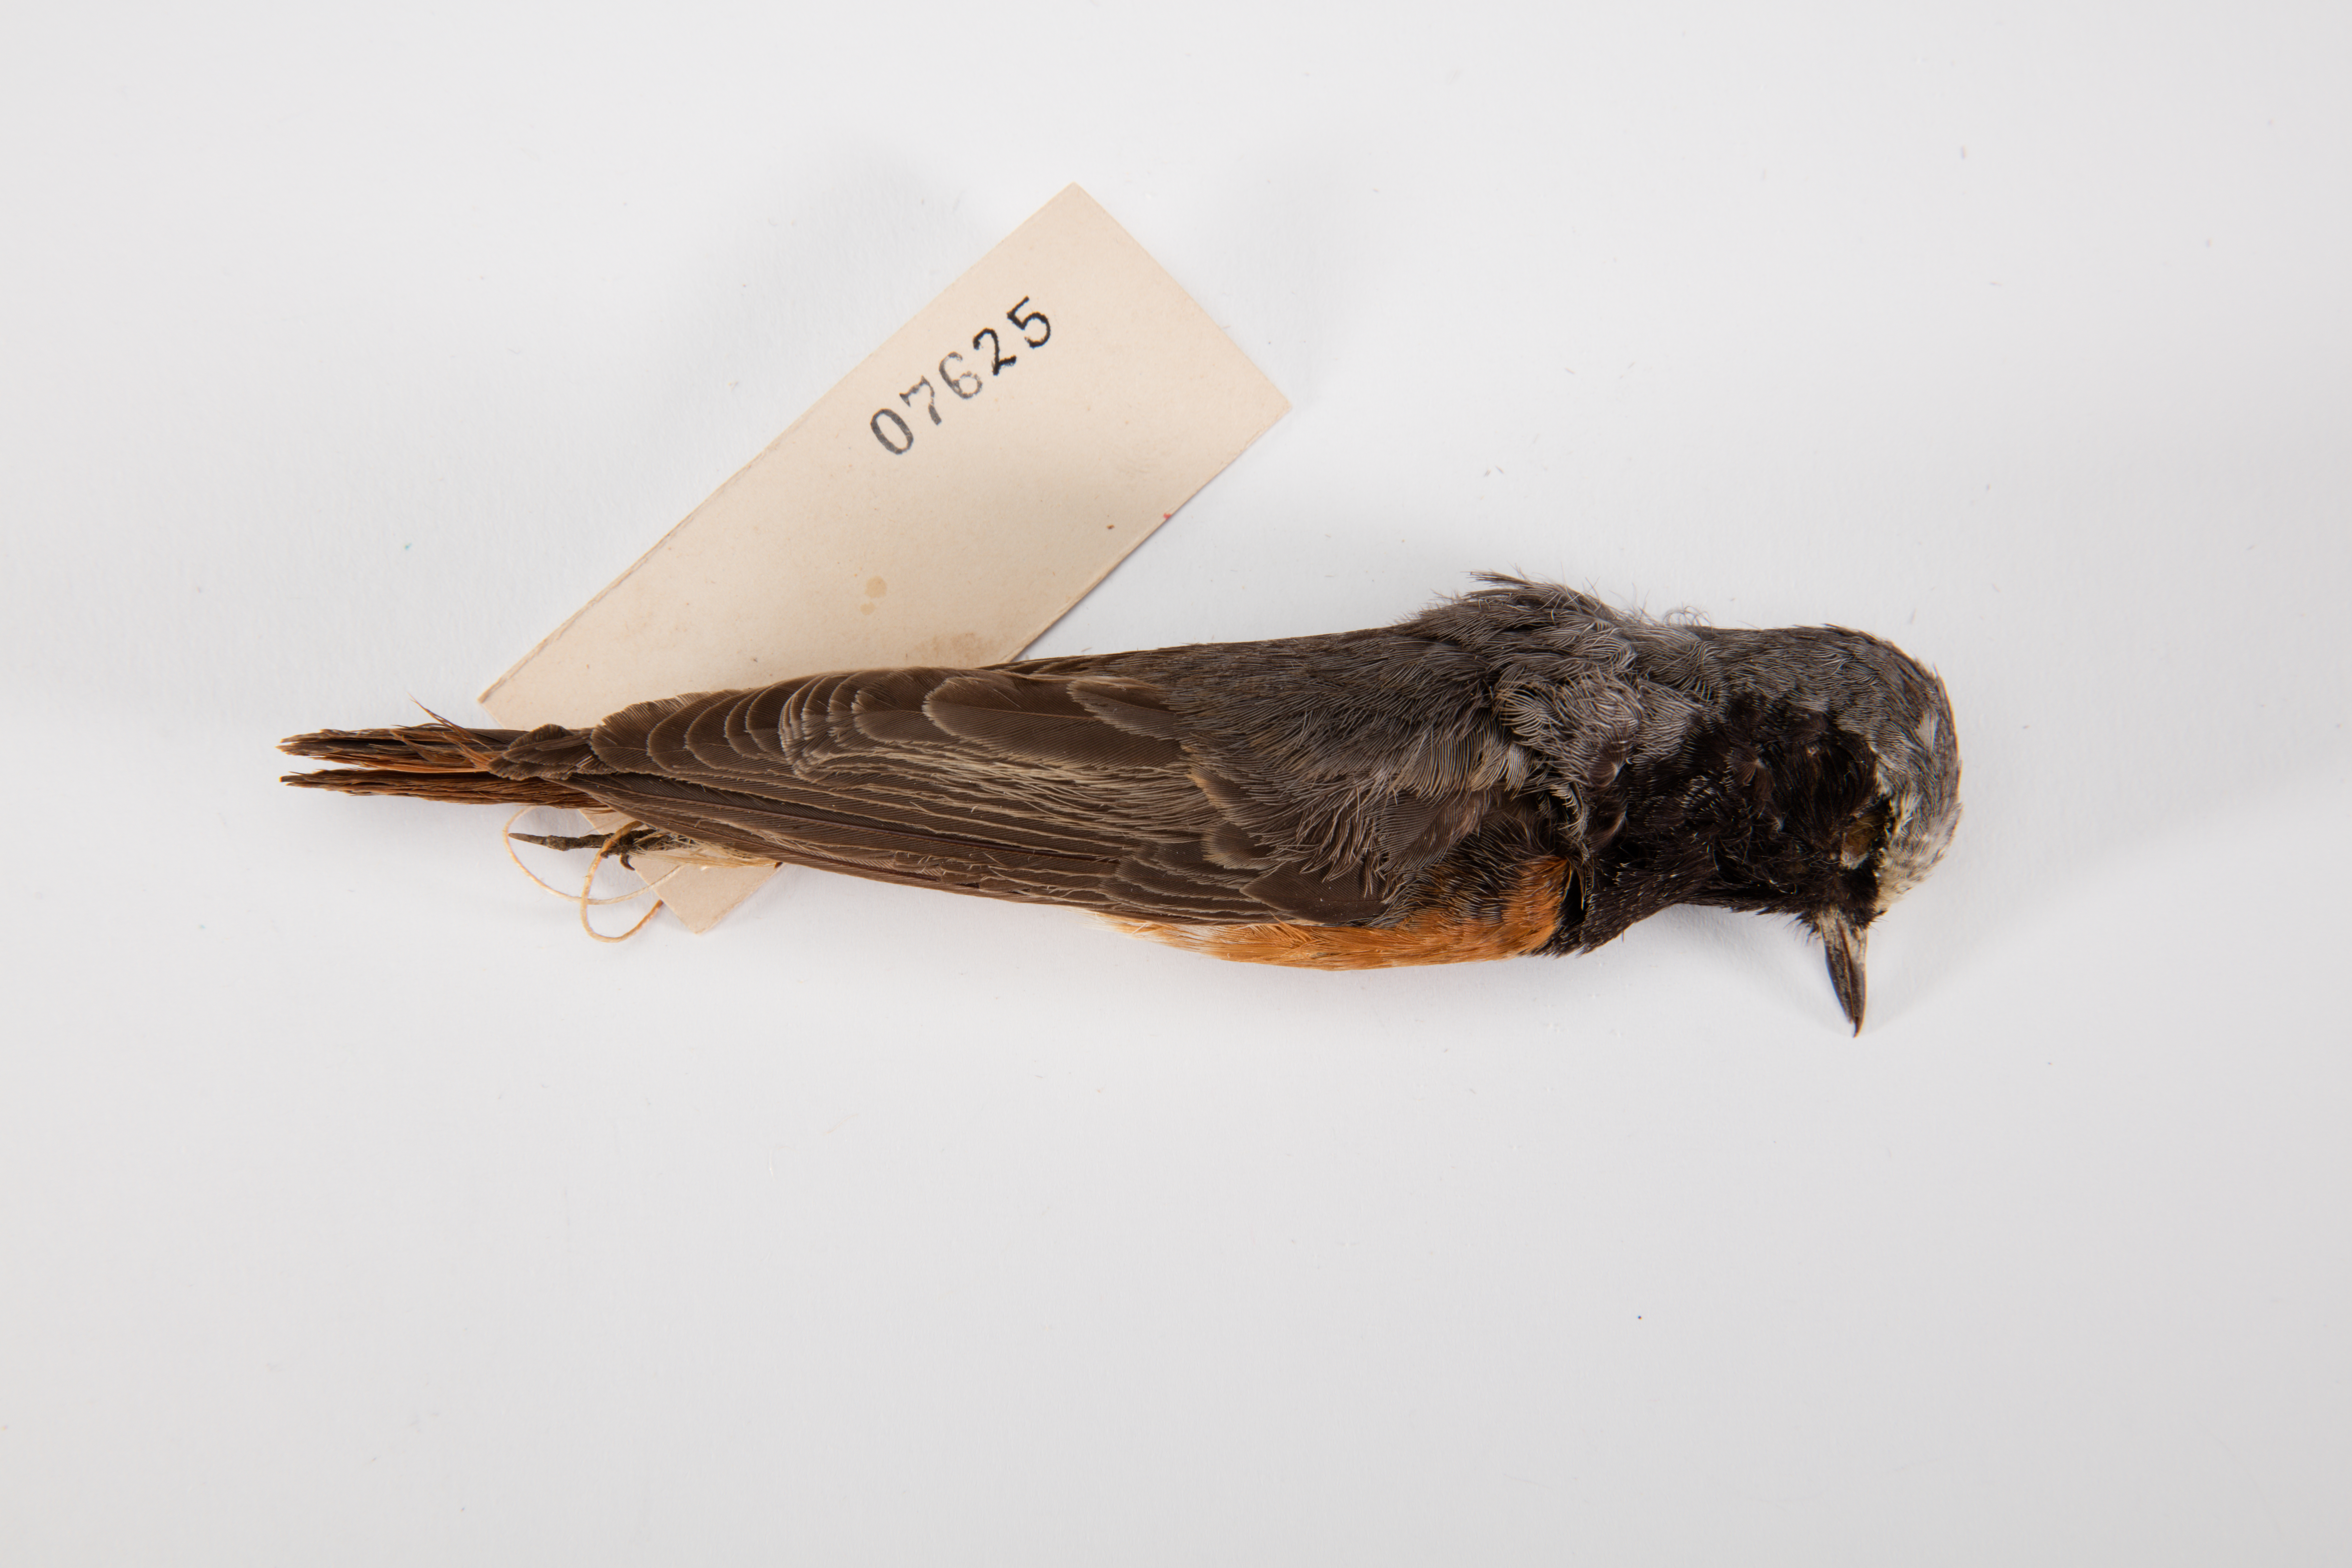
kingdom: Animalia
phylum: Chordata
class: Aves
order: Passeriformes
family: Muscicapidae
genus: Phoenicurus
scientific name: Phoenicurus phoenicurus
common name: Common redstart
